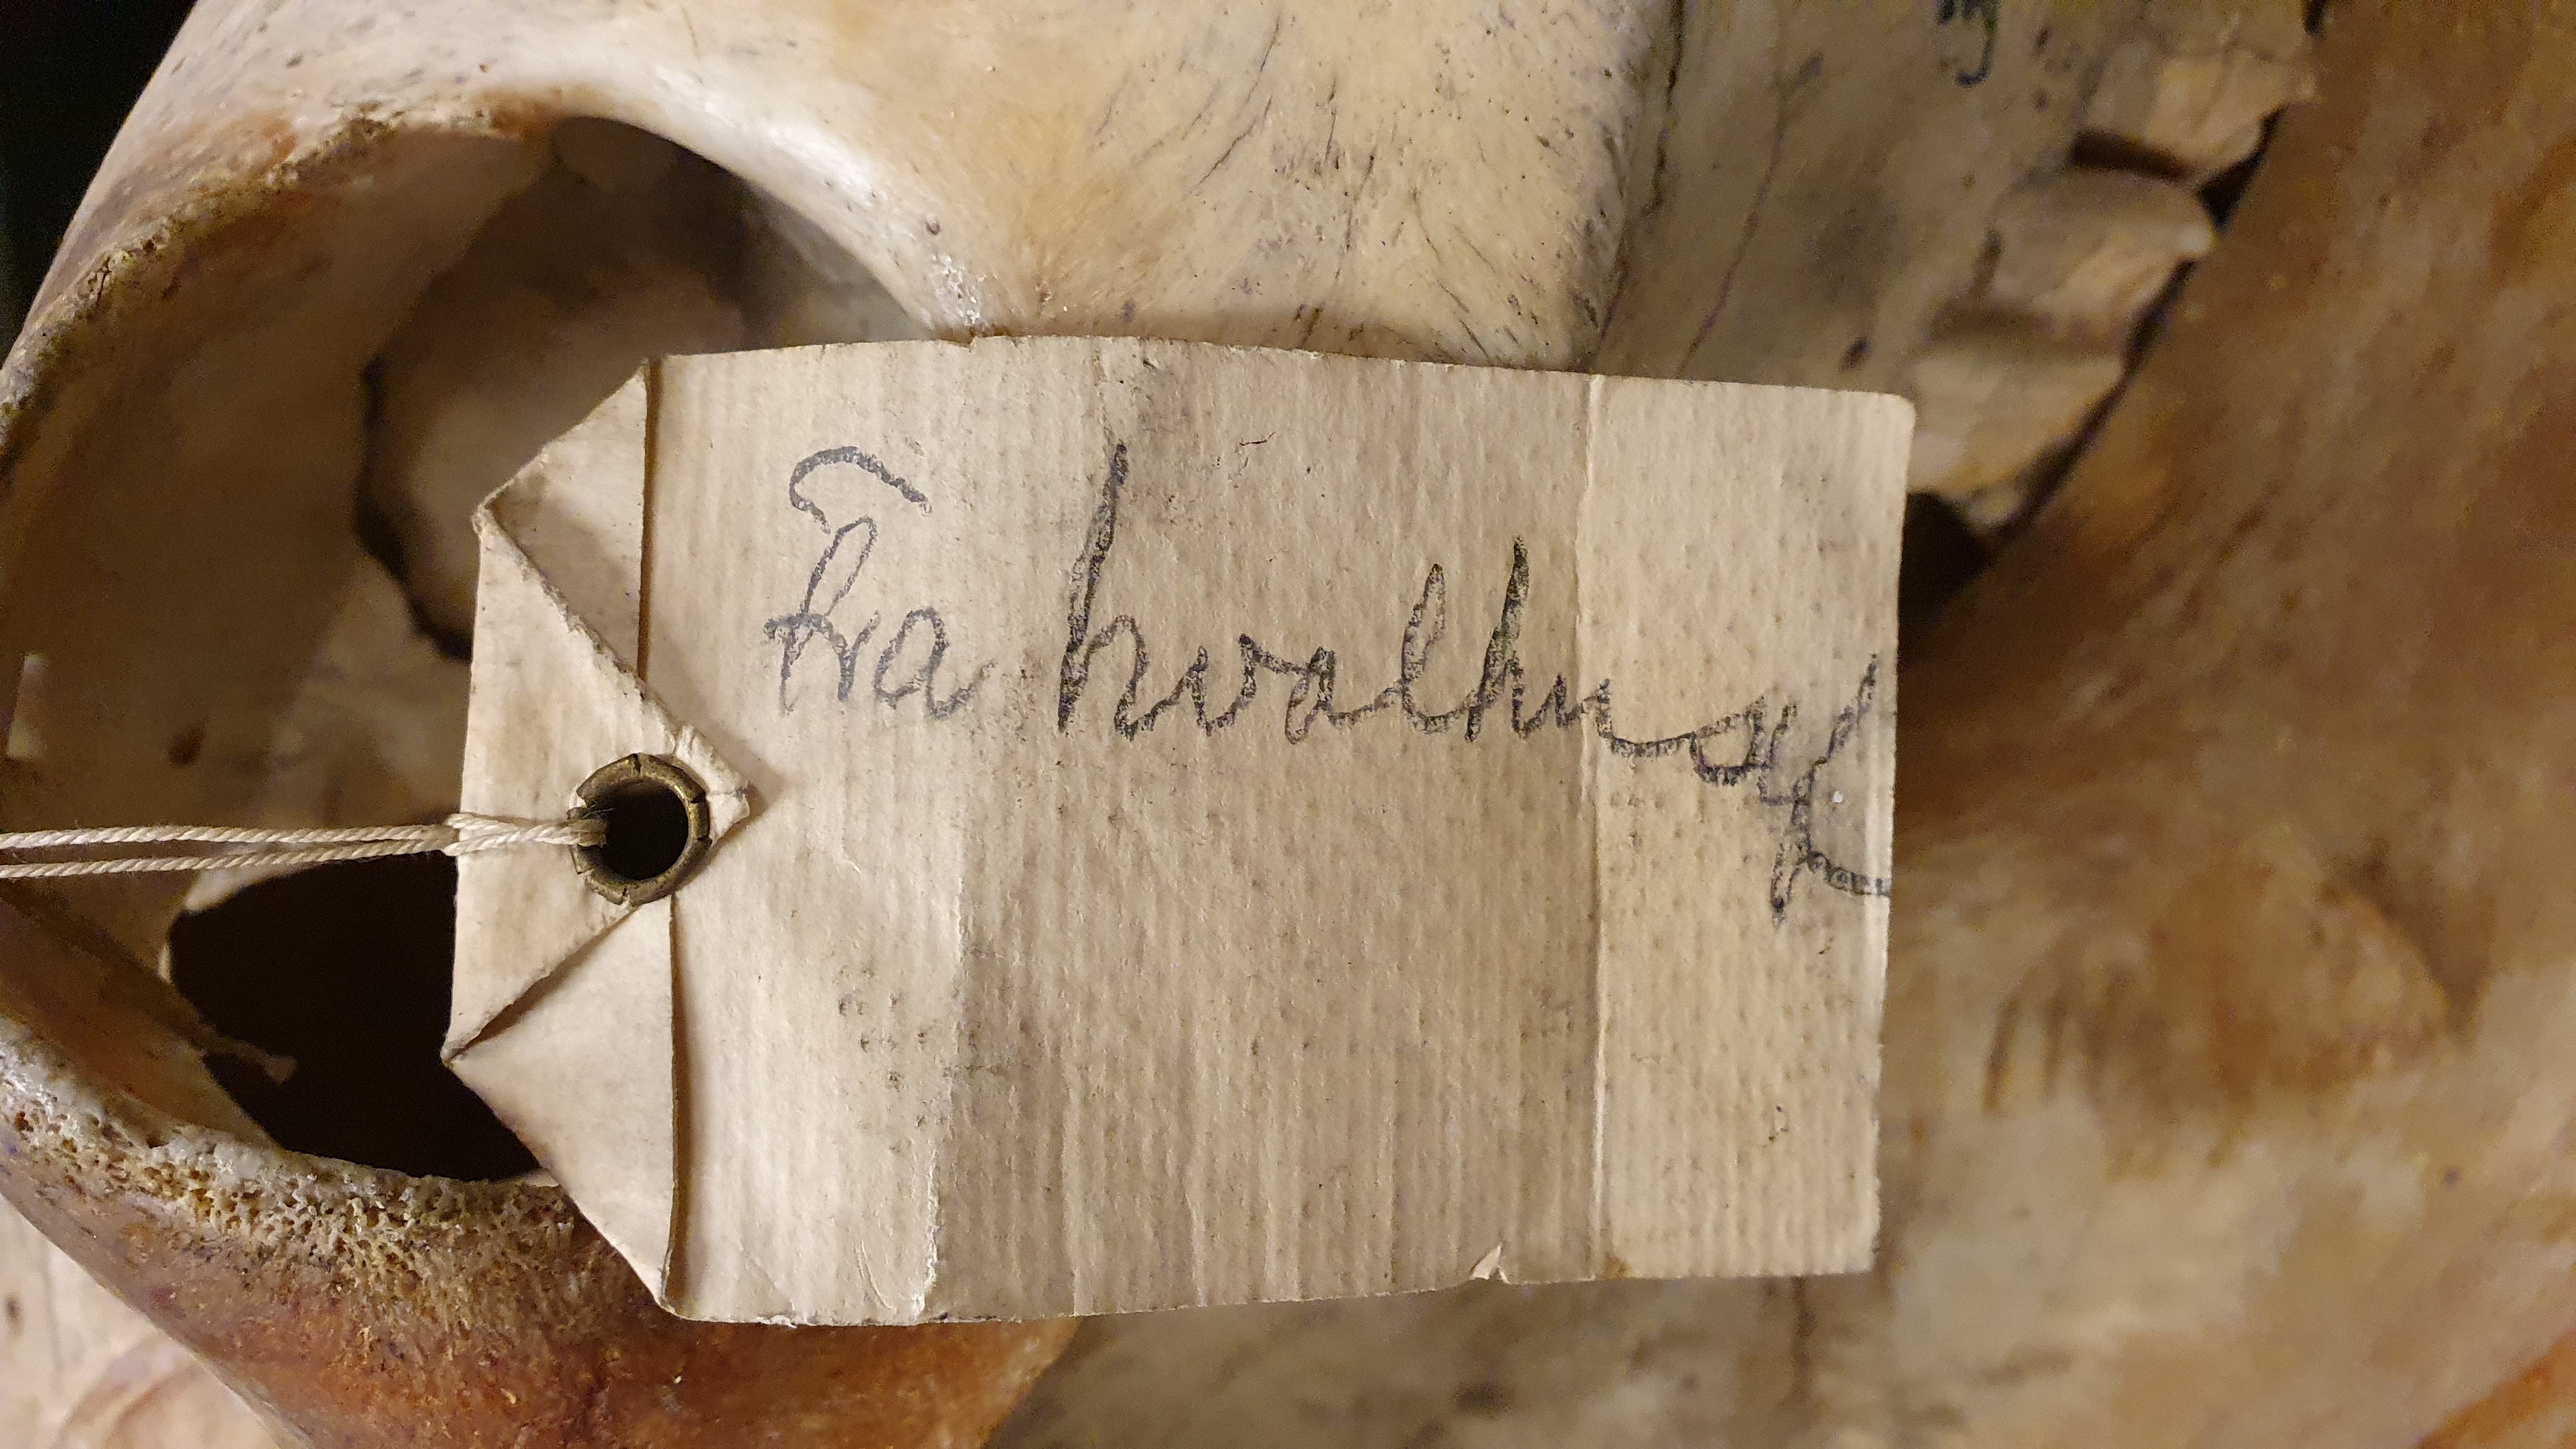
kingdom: Animalia
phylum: Chordata
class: Mammalia
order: Perissodactyla
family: Equidae
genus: Equus
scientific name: Equus asinus
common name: Ass
